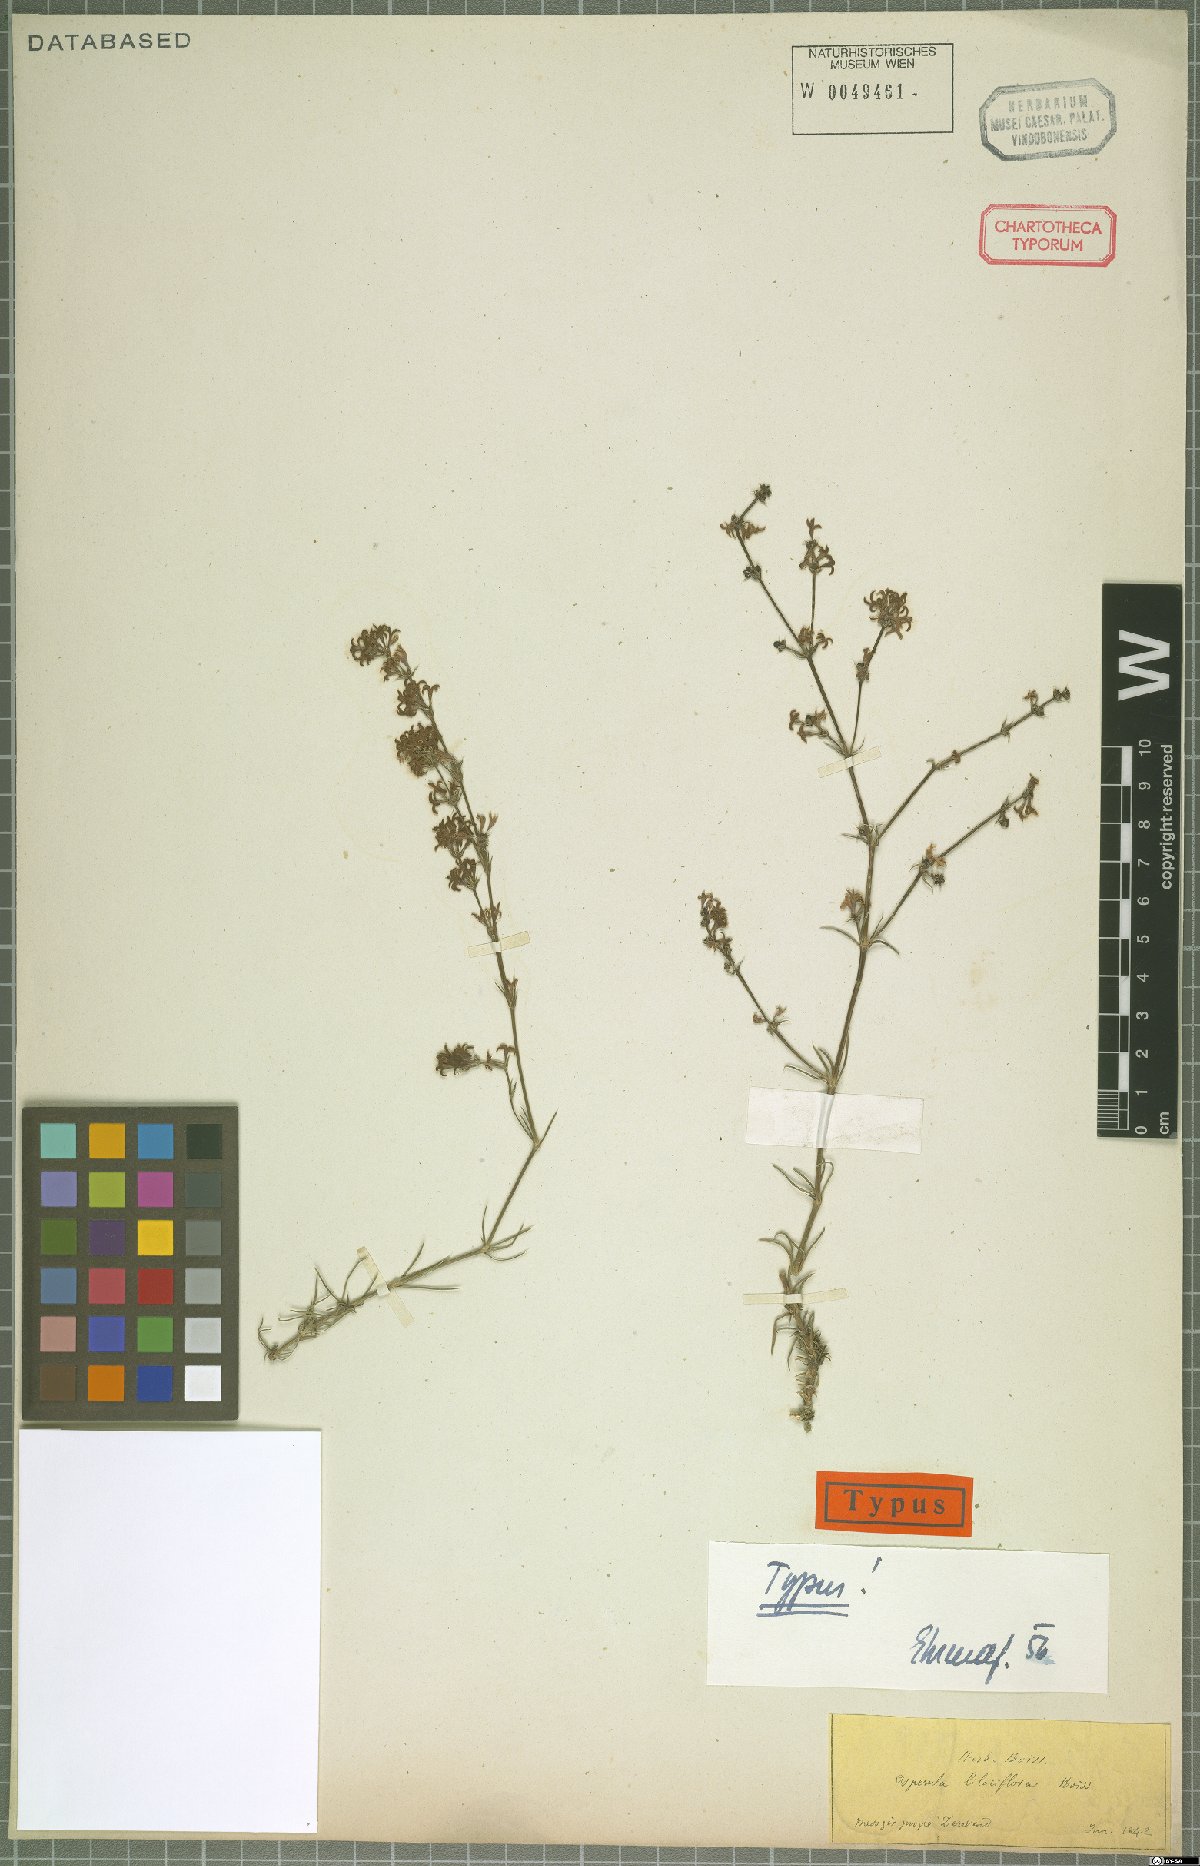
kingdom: Plantae
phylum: Tracheophyta
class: Magnoliopsida
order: Gentianales
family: Rubiaceae
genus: Cynanchica
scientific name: Cynanchica lilaciflora
